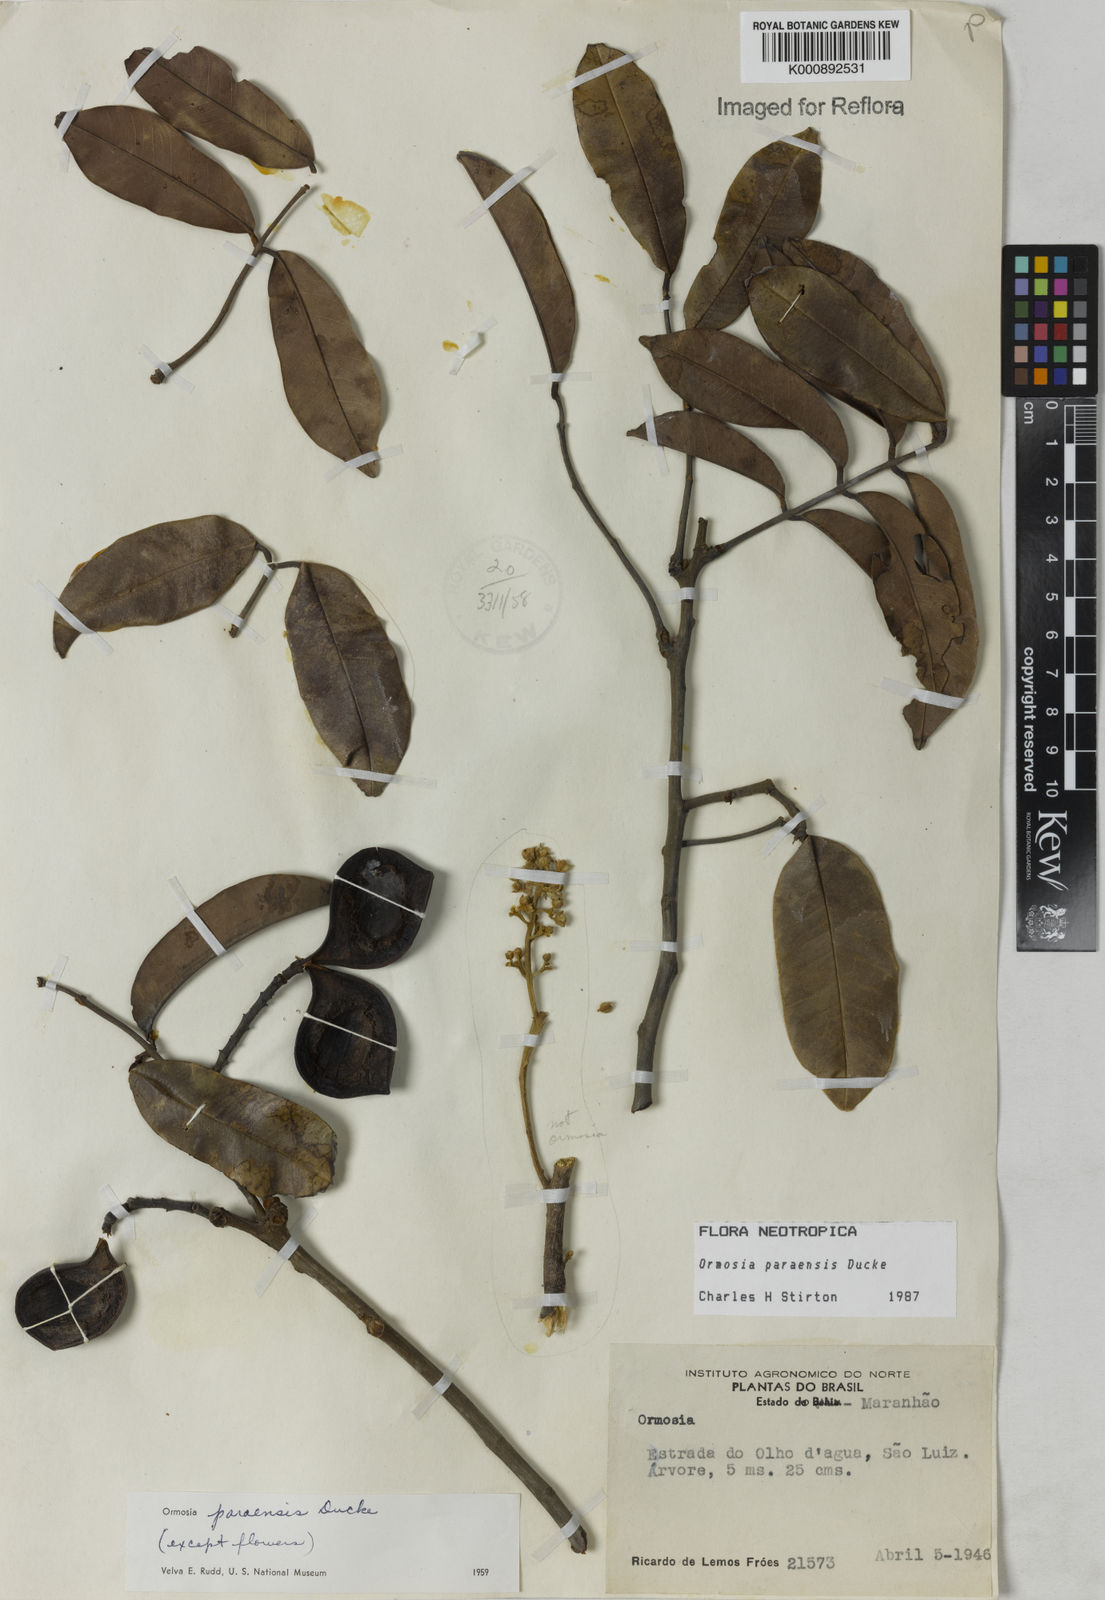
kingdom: Plantae
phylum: Tracheophyta
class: Magnoliopsida
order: Fabales
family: Fabaceae
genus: Ormosia
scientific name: Ormosia paraensis
